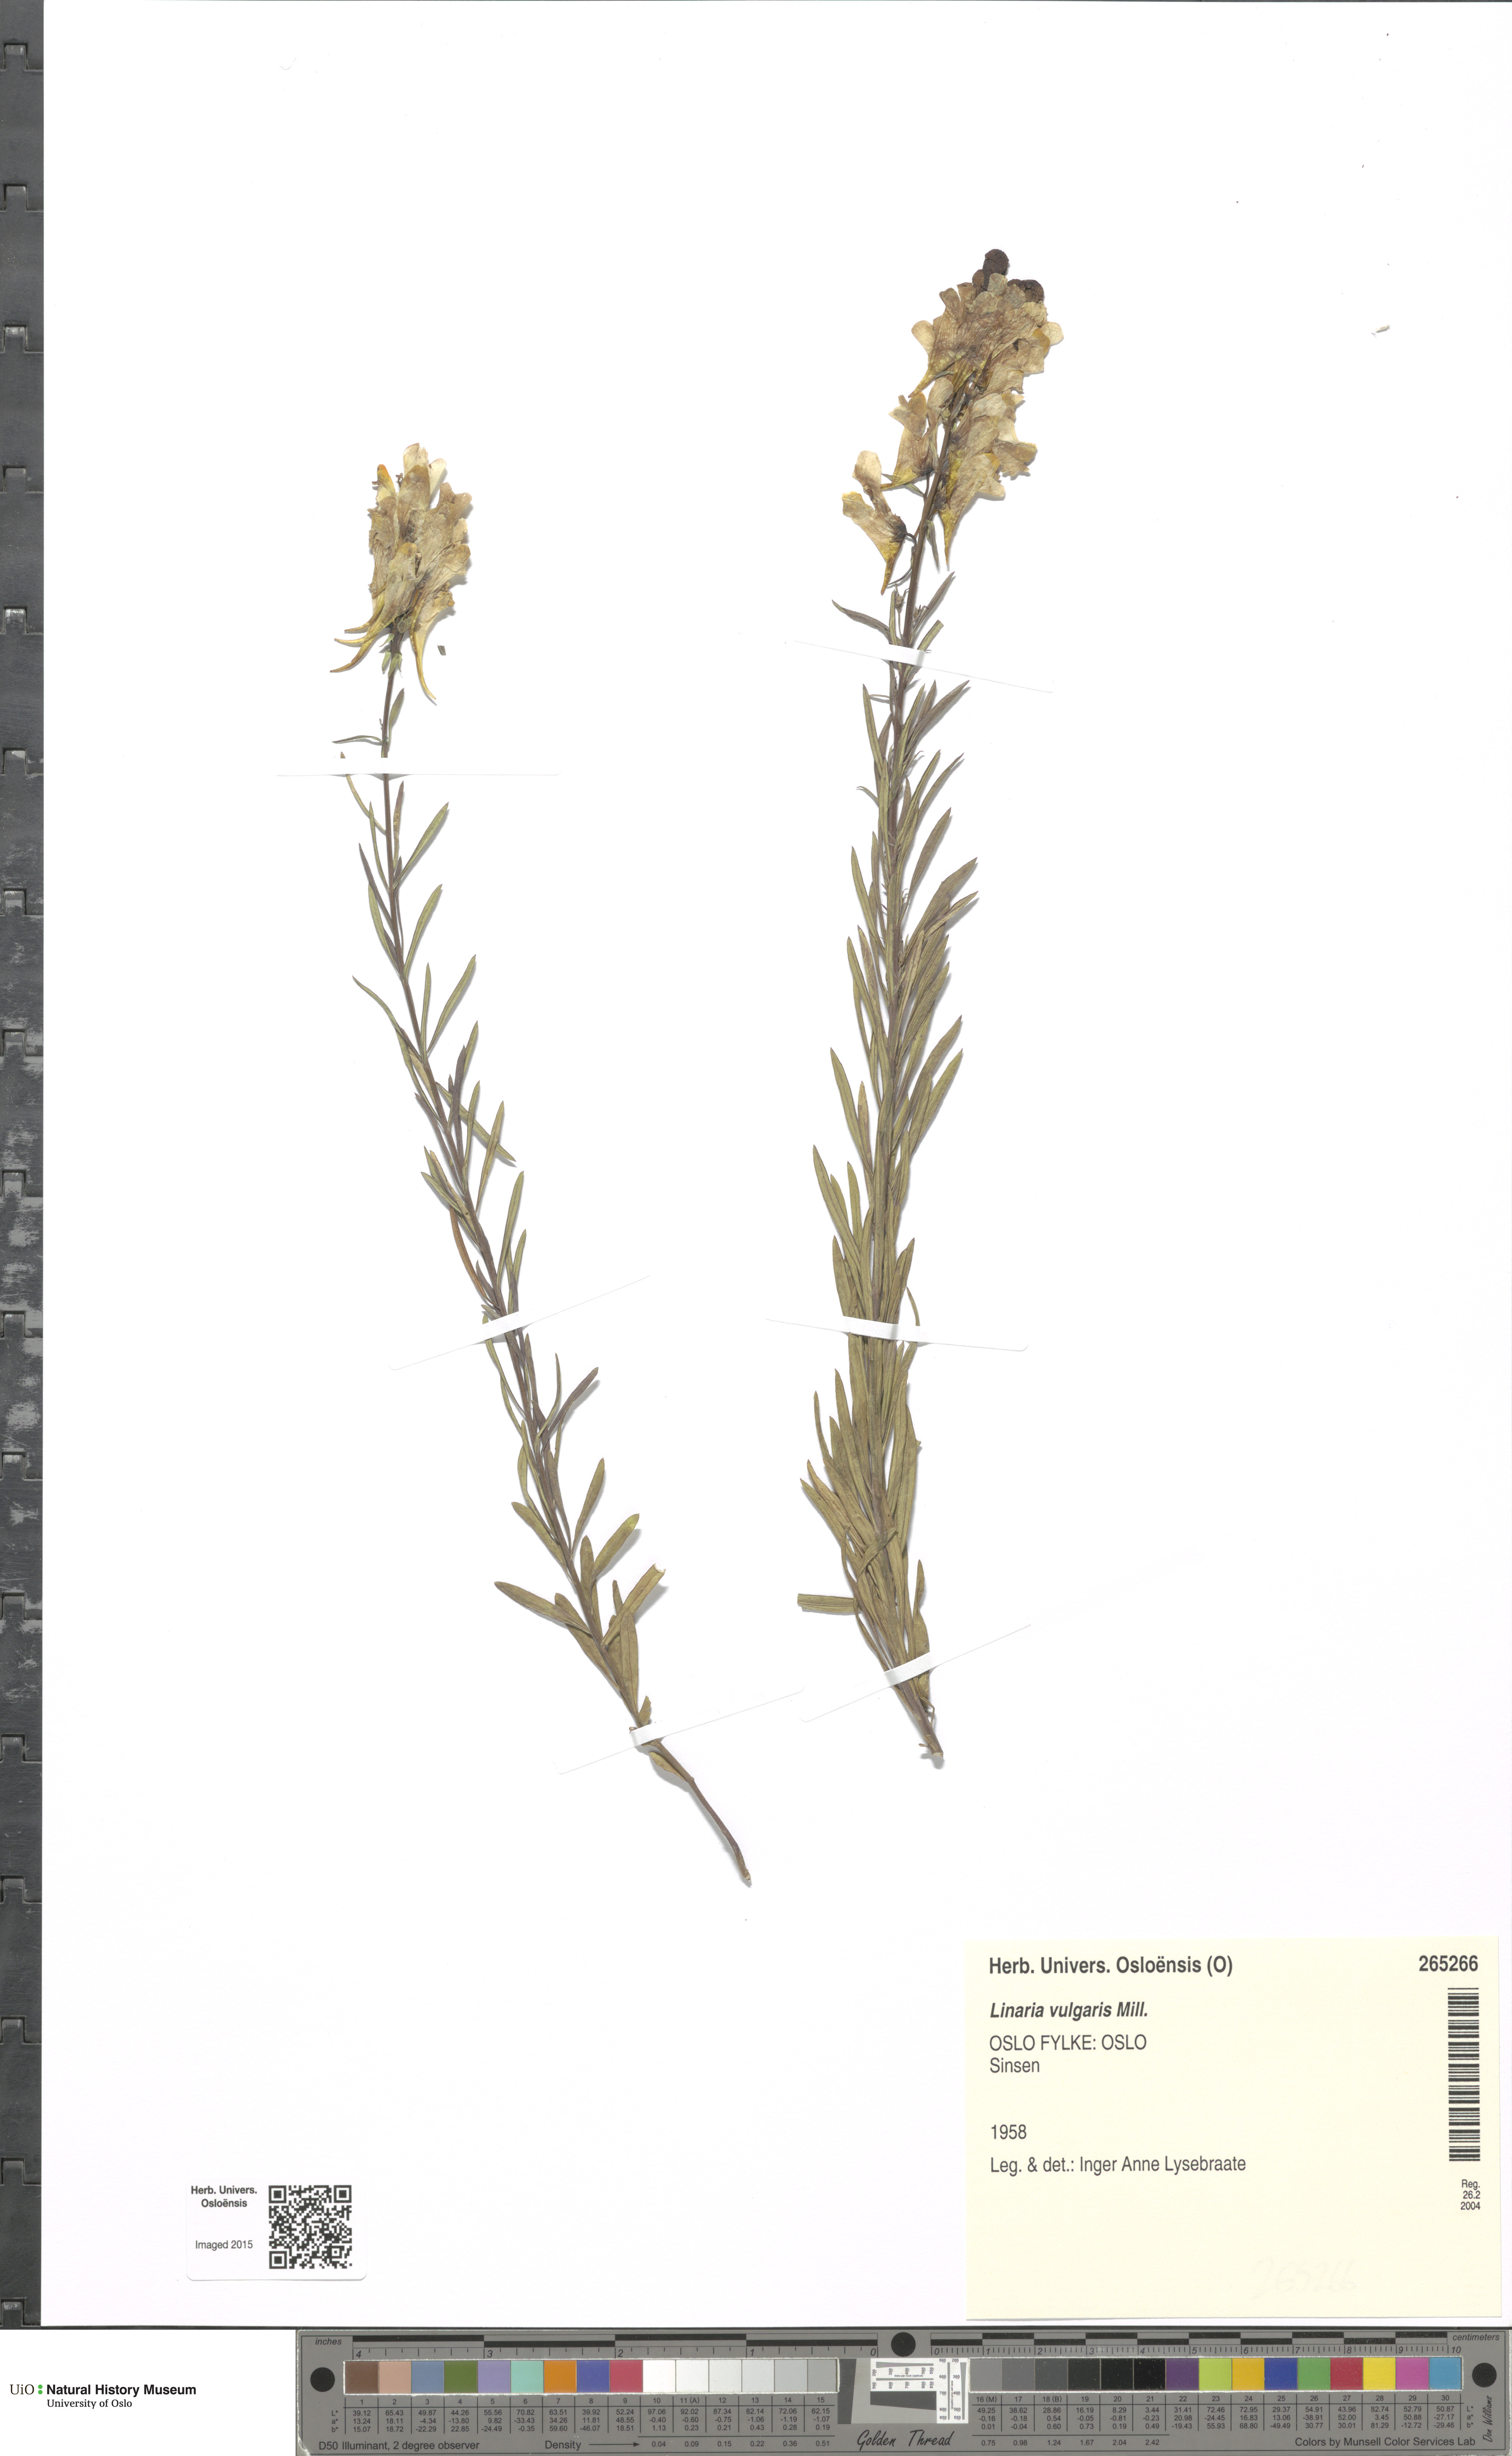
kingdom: Plantae
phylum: Tracheophyta
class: Magnoliopsida
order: Lamiales
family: Plantaginaceae
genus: Linaria
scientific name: Linaria vulgaris
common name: Butter and eggs
